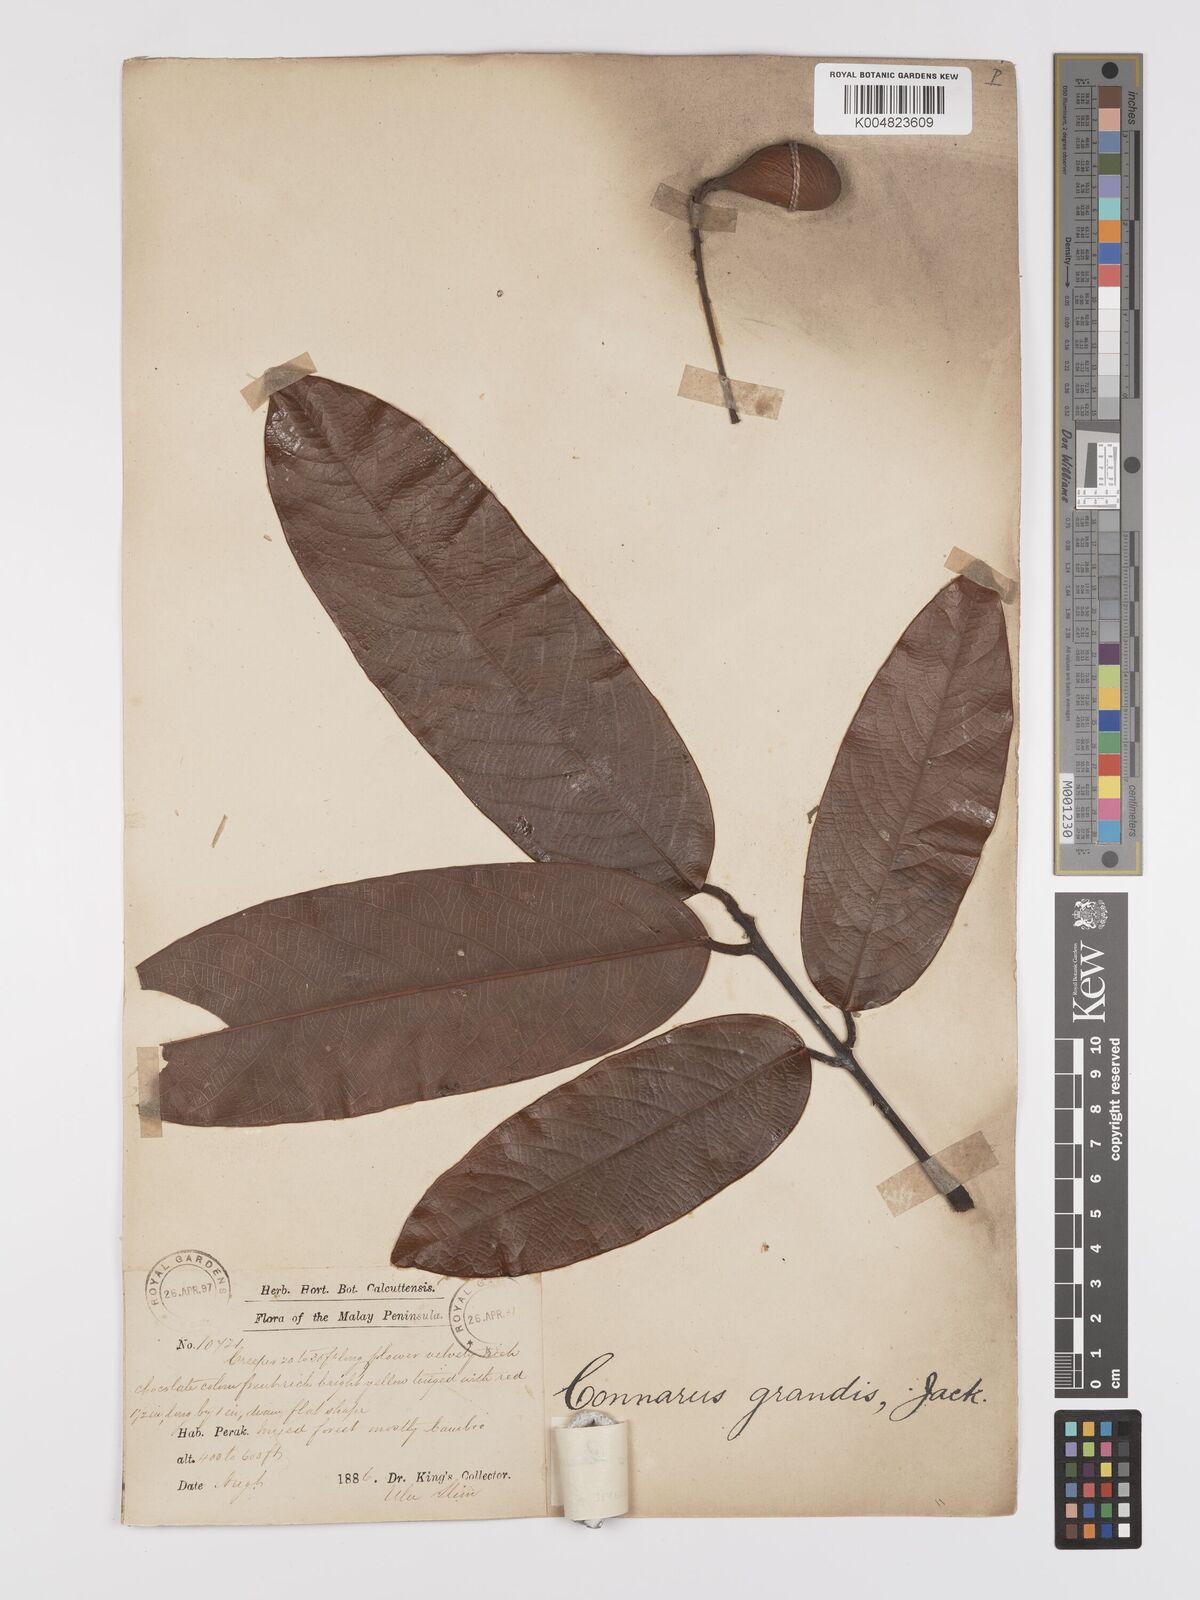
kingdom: Plantae
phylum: Tracheophyta
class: Magnoliopsida
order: Oxalidales
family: Connaraceae
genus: Connarus
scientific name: Connarus planchonianus
